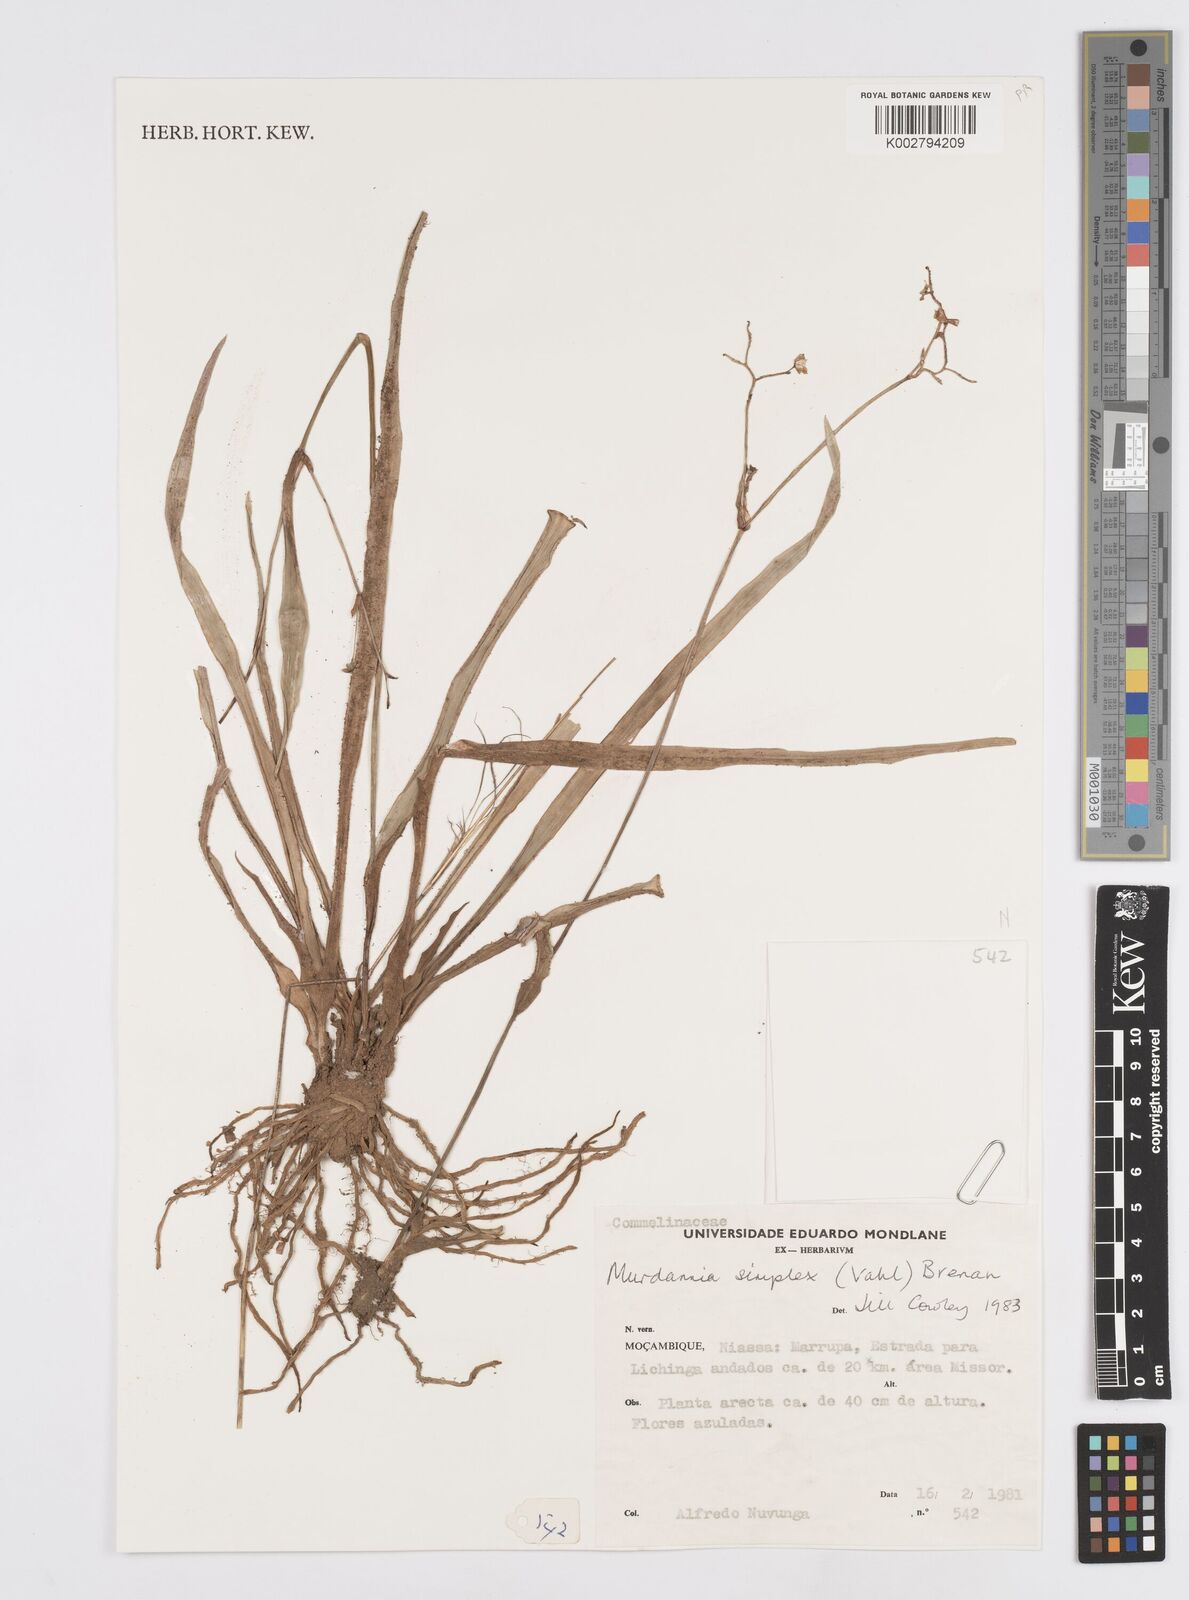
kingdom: Plantae
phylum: Tracheophyta
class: Liliopsida
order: Commelinales
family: Commelinaceae
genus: Murdannia
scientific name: Murdannia simplex
